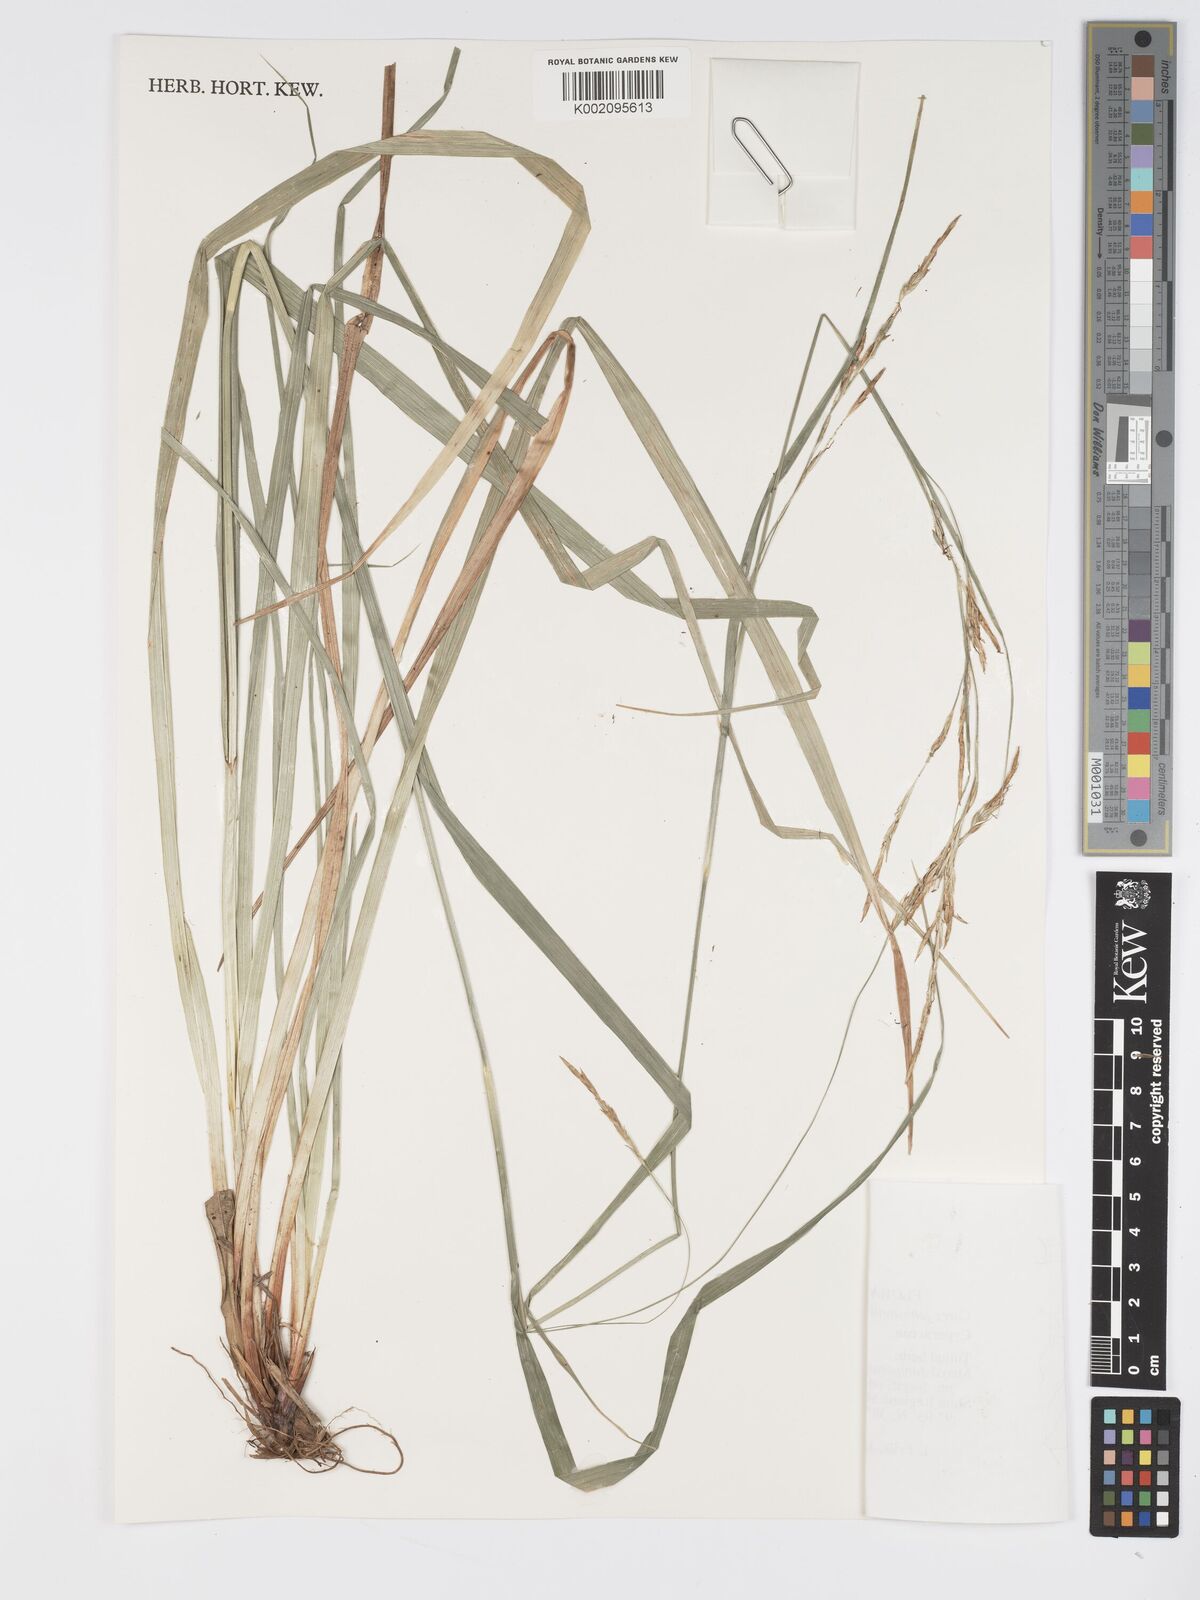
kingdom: Plantae
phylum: Tracheophyta
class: Liliopsida
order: Poales
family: Cyperaceae
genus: Carex
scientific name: Carex johnstonii
